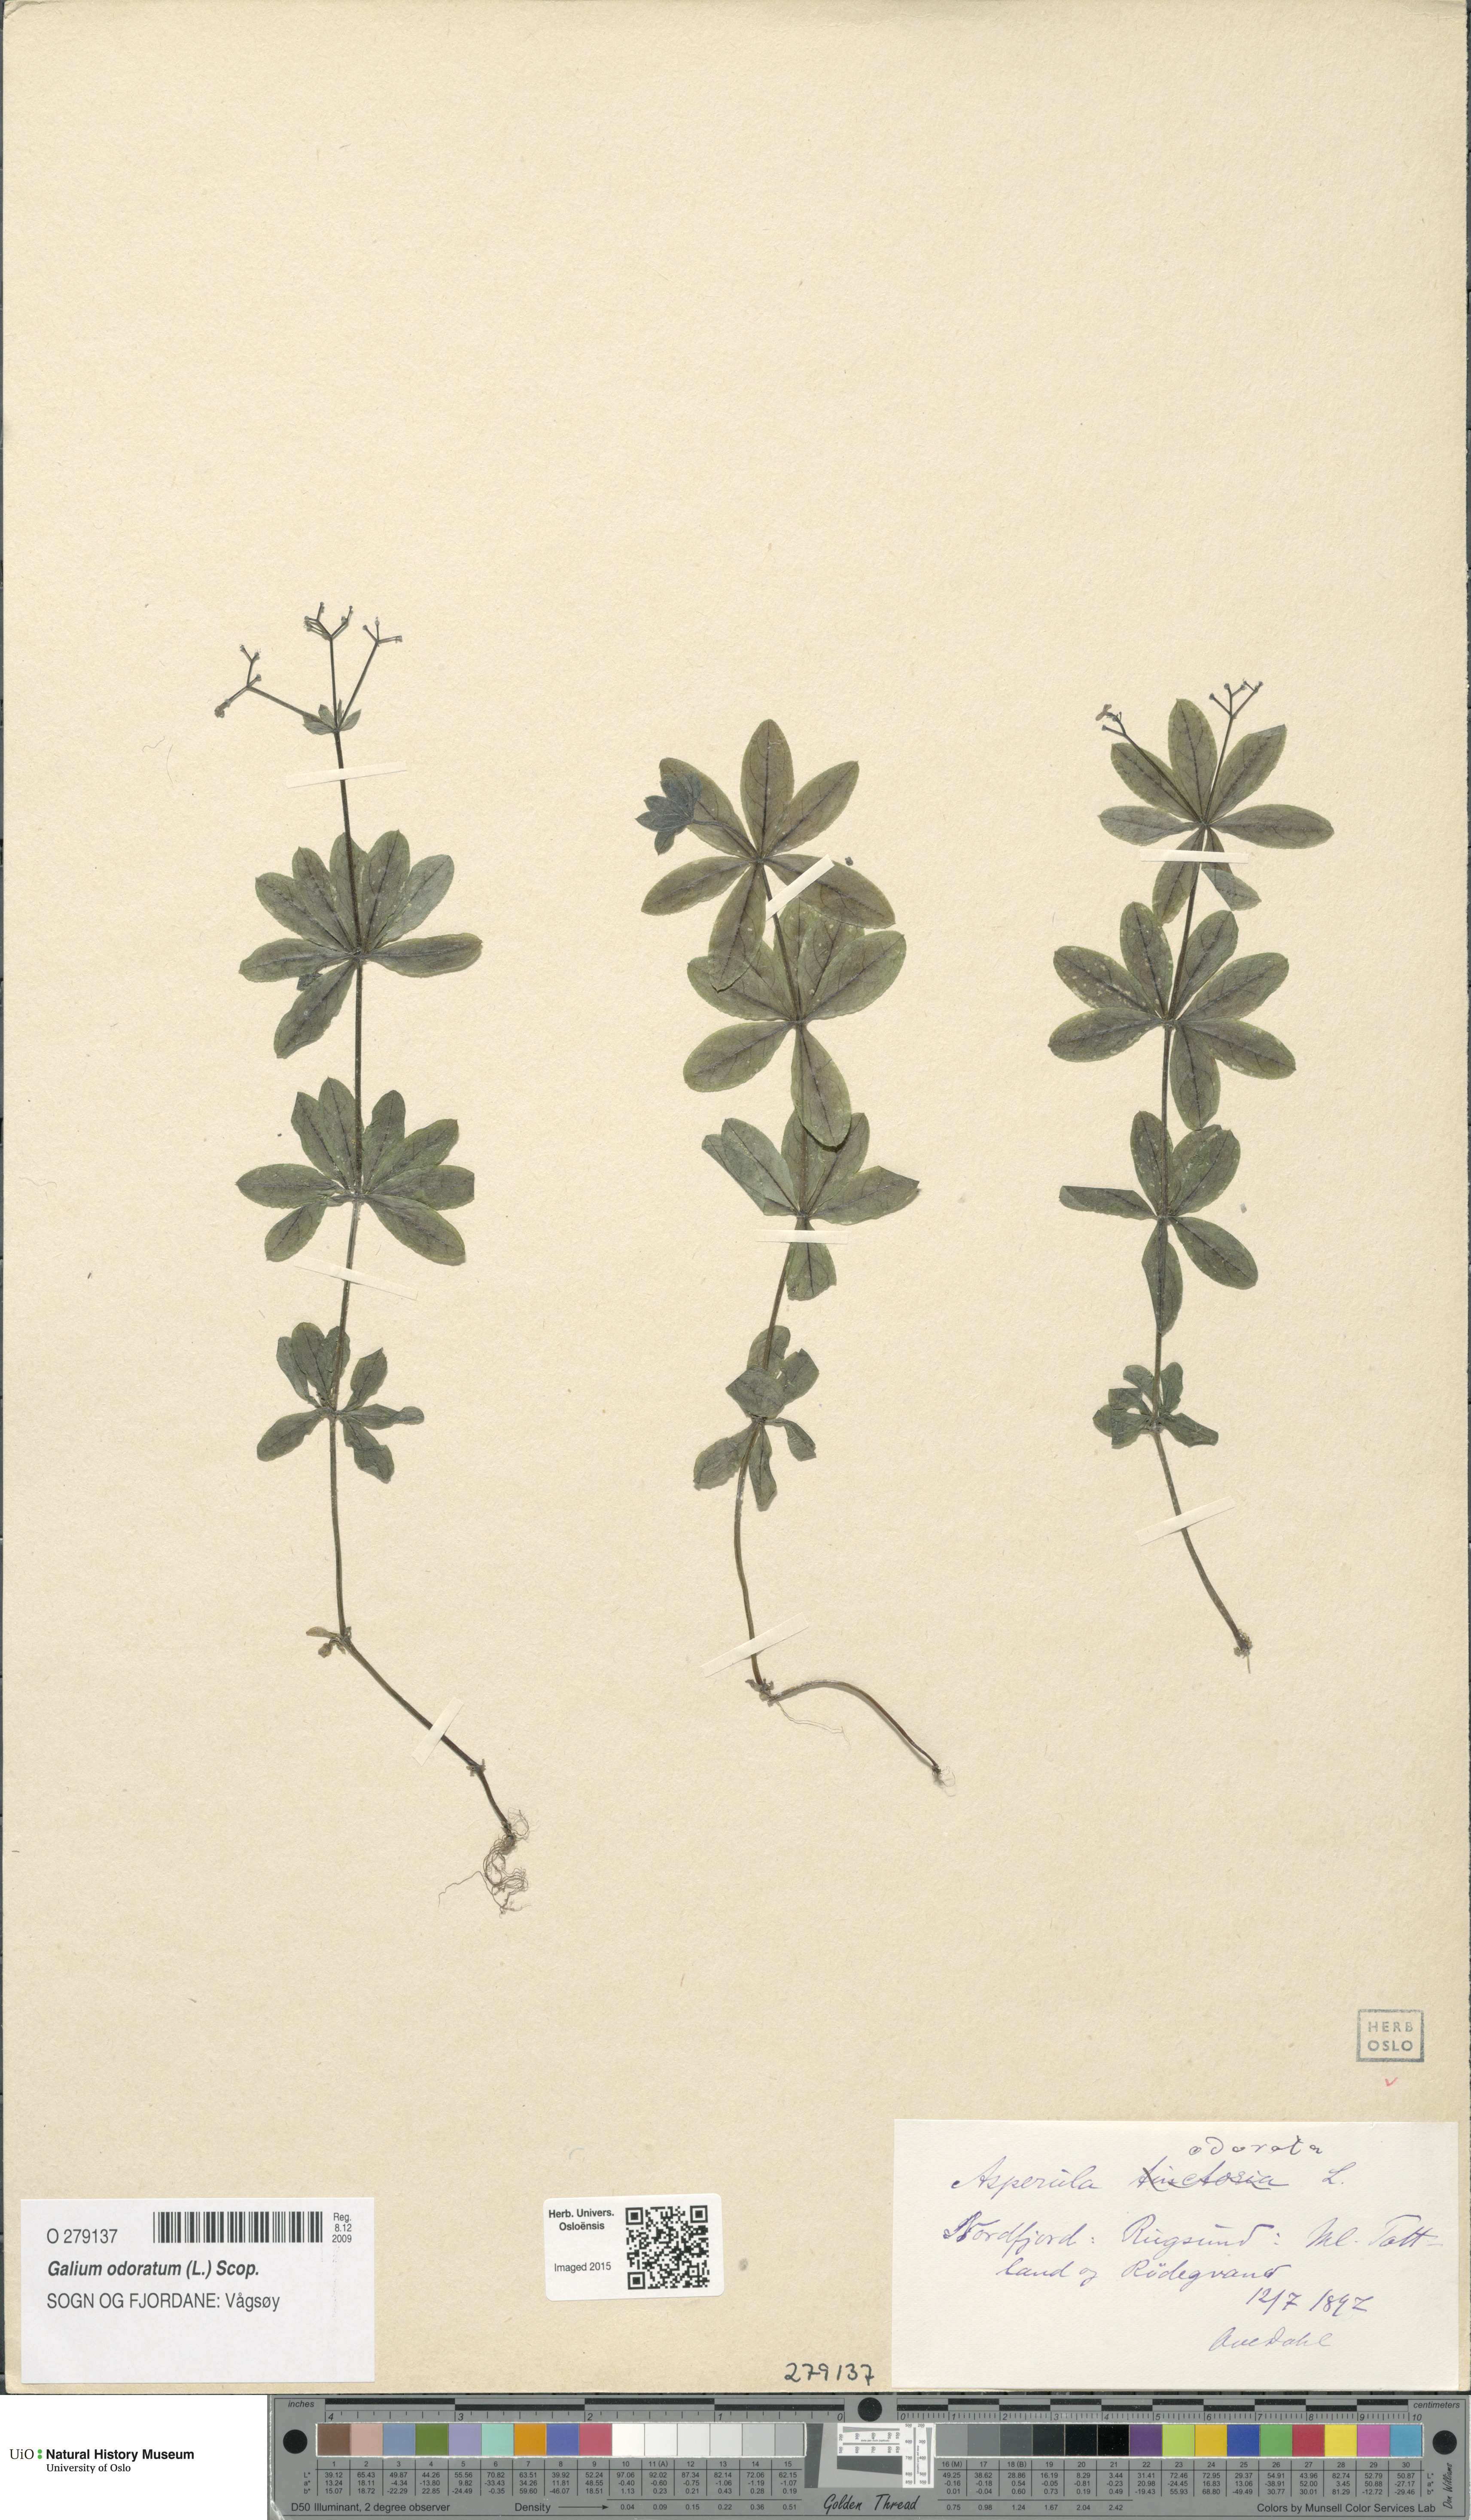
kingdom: Plantae
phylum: Tracheophyta
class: Magnoliopsida
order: Gentianales
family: Rubiaceae
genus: Galium
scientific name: Galium odoratum
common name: Sweet woodruff
